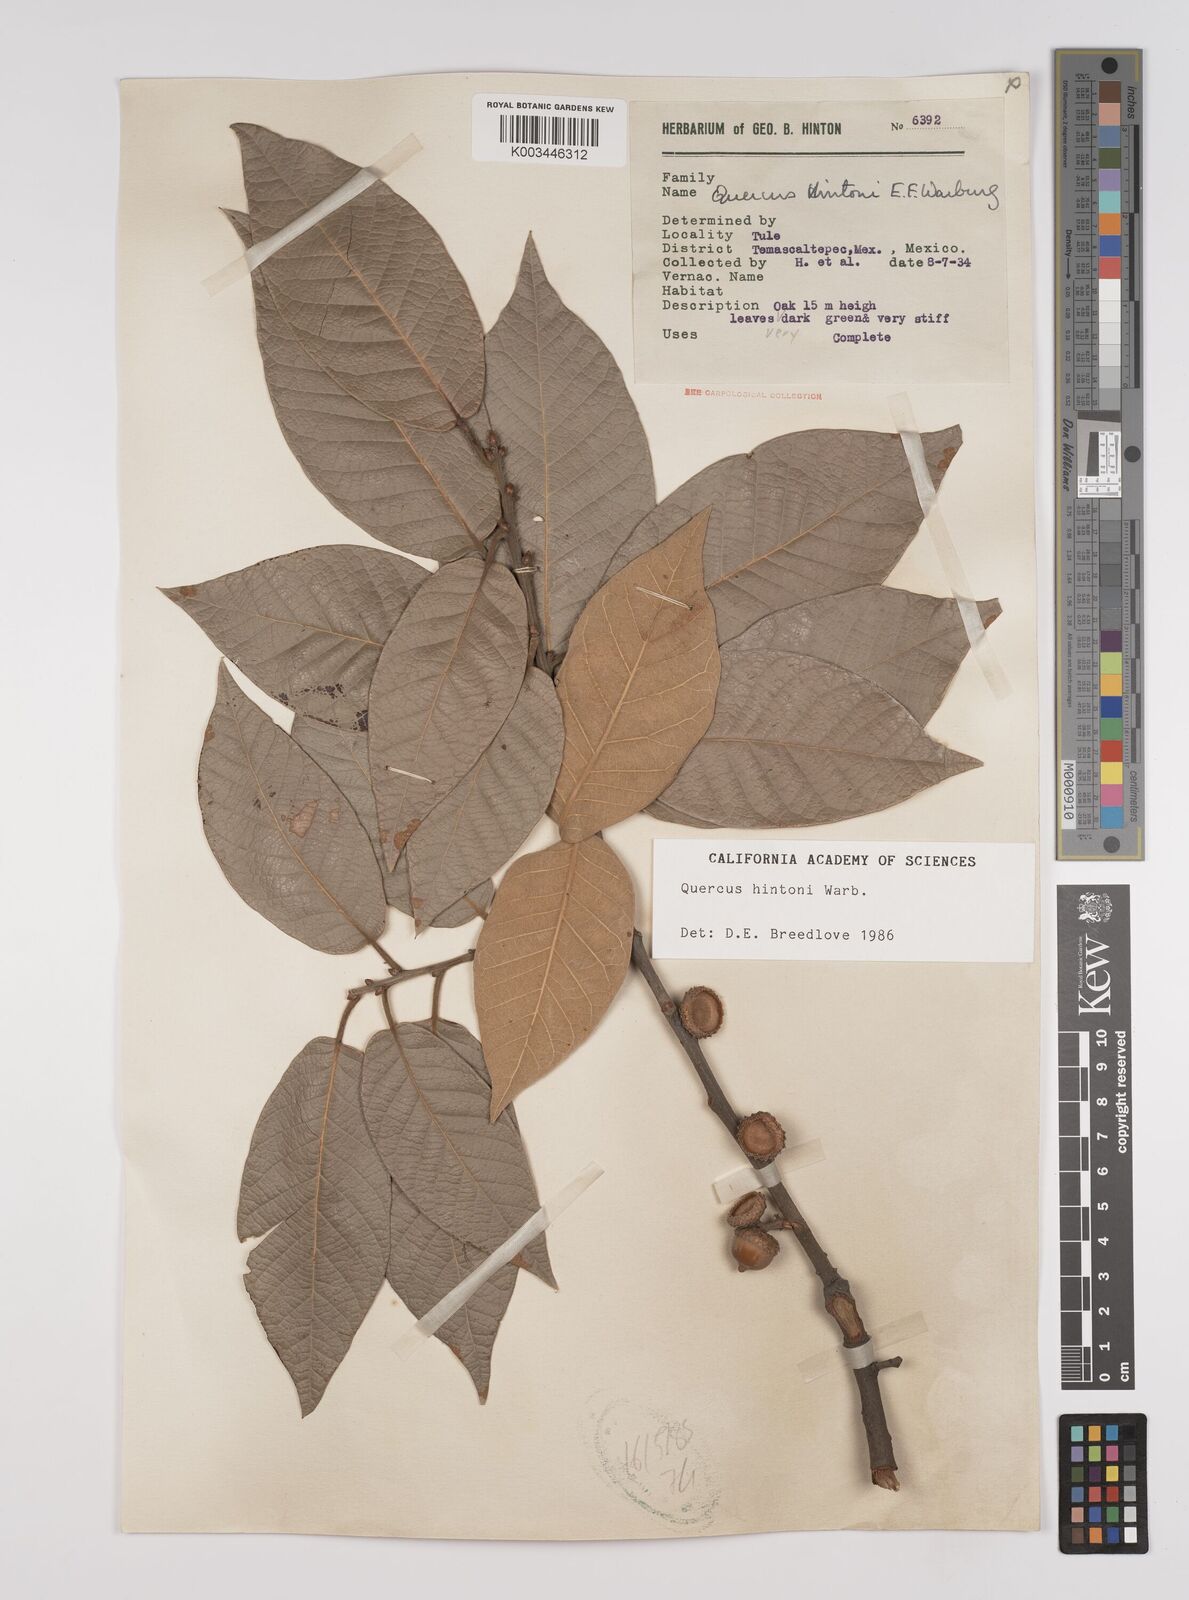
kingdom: Plantae
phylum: Tracheophyta
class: Magnoliopsida
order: Fagales
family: Fagaceae
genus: Quercus
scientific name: Quercus hintonii
